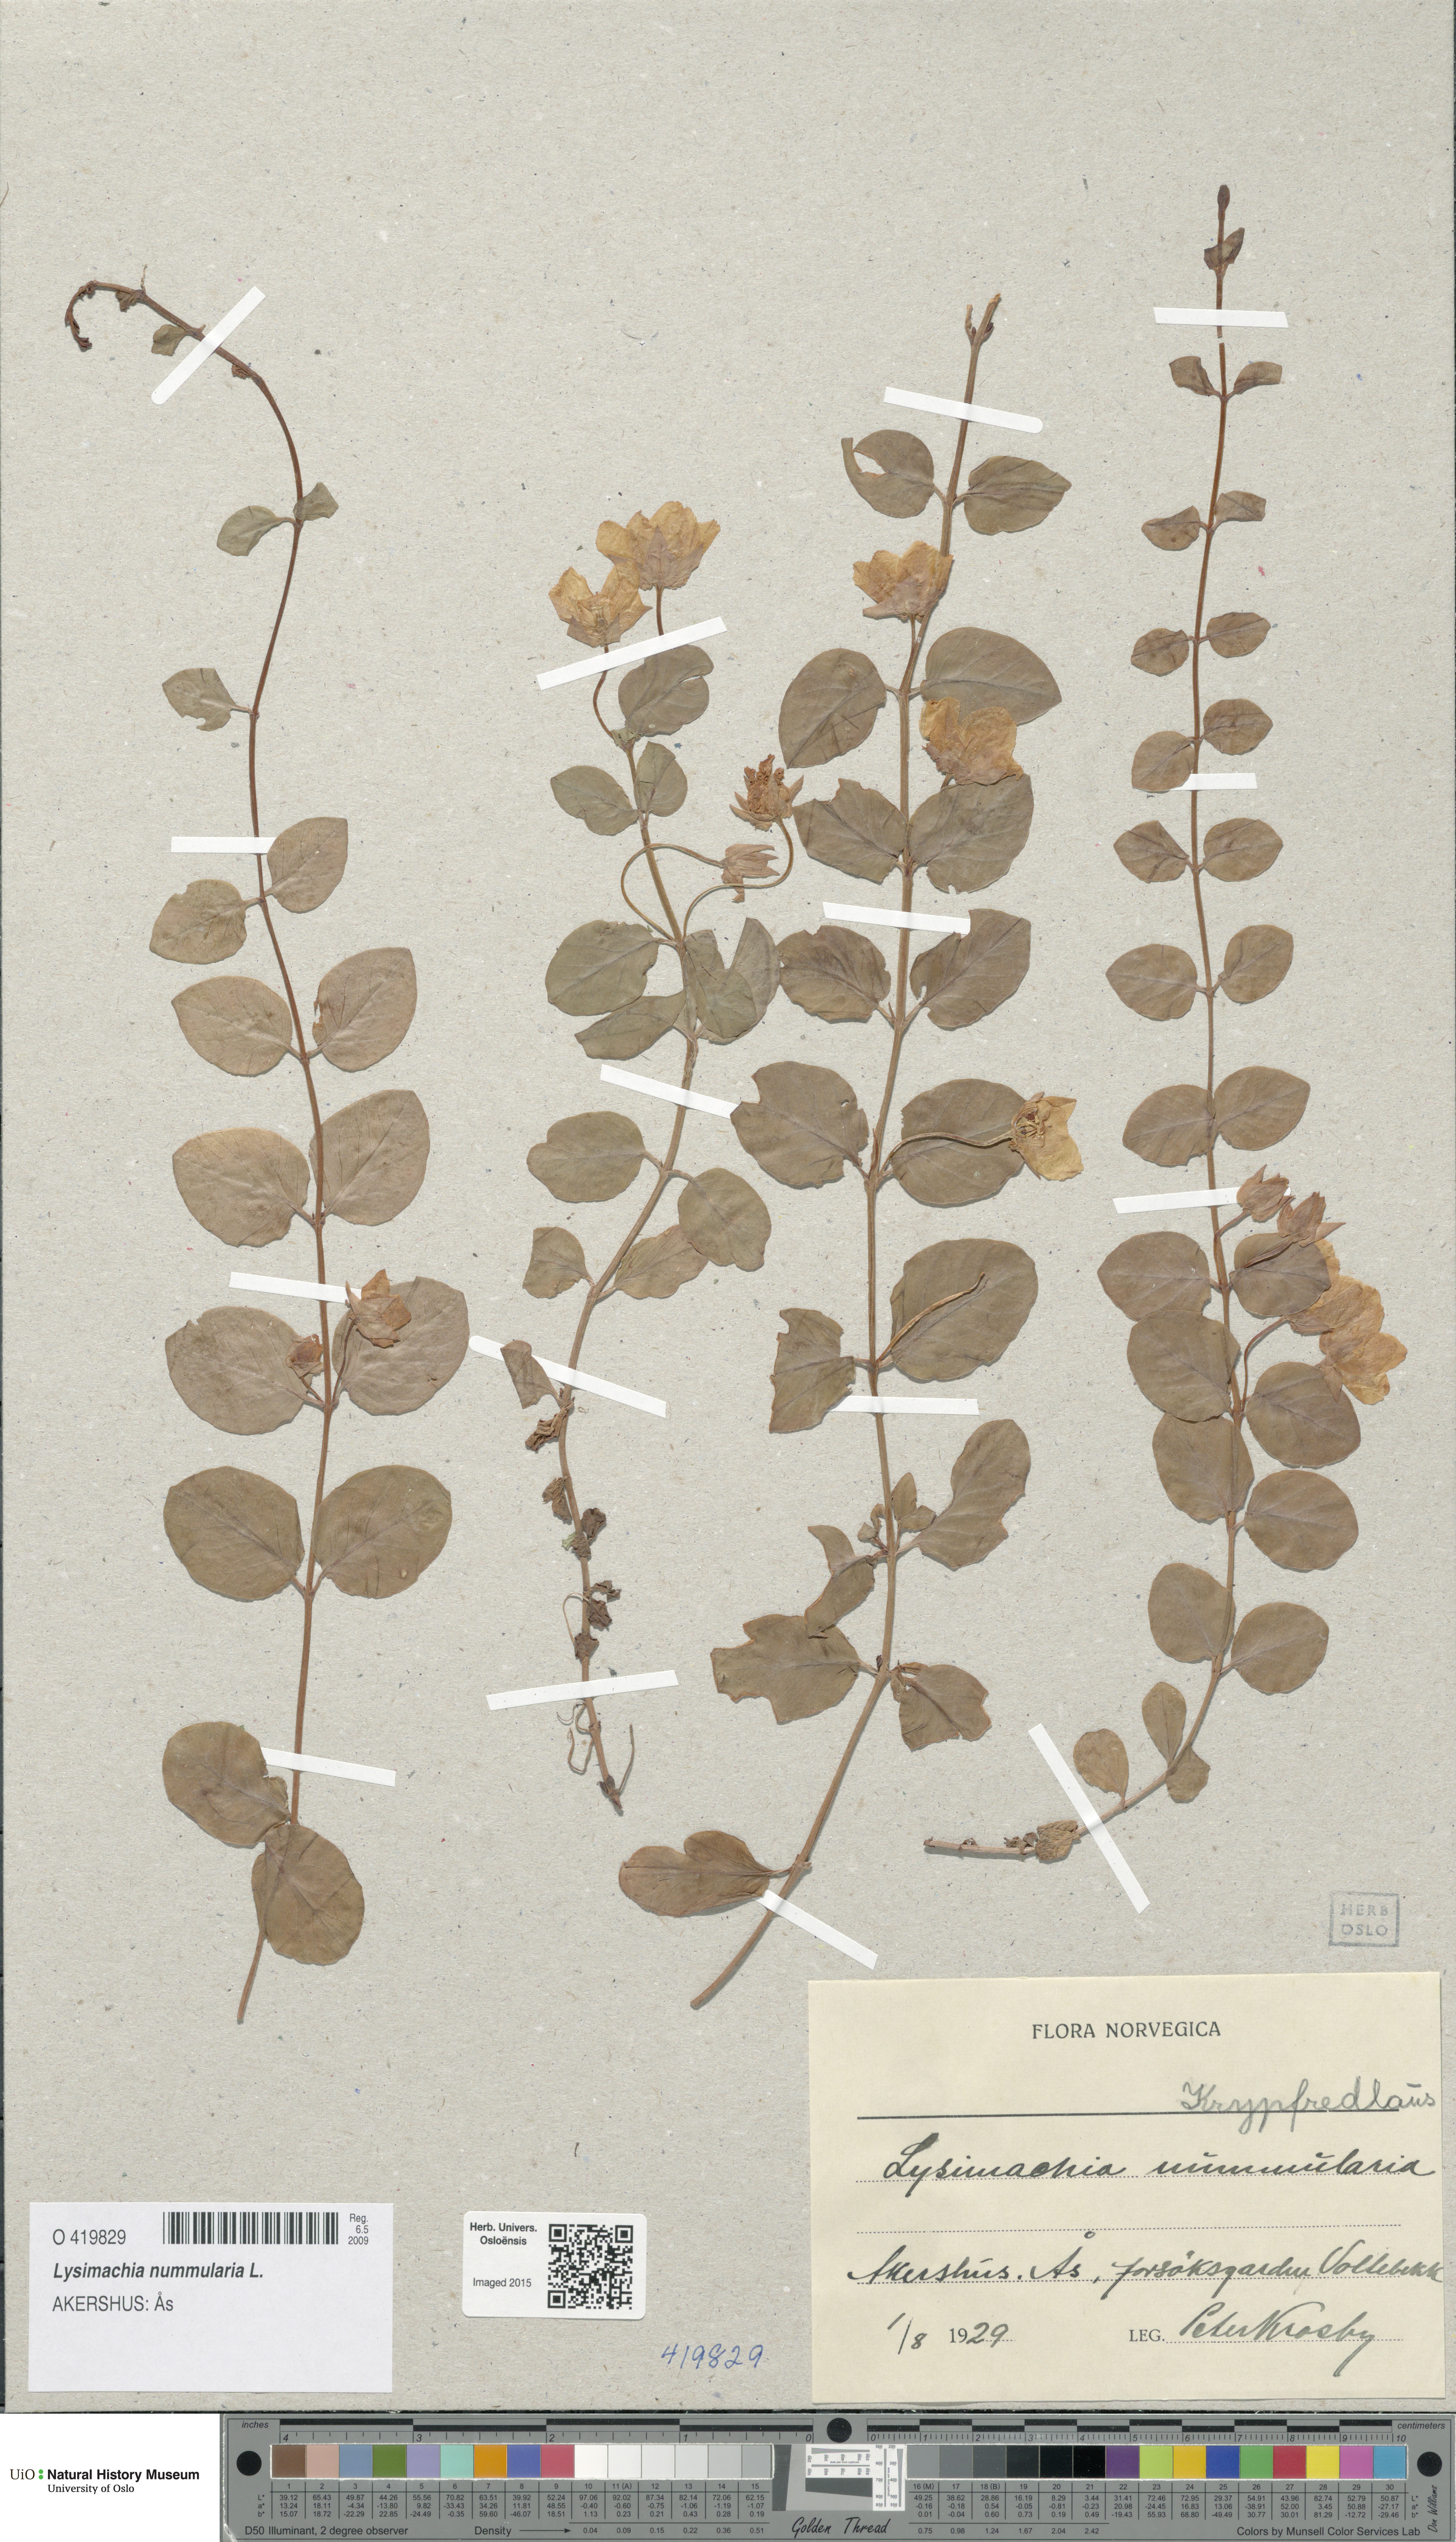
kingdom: Plantae
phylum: Tracheophyta
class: Magnoliopsida
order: Ericales
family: Primulaceae
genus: Lysimachia
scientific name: Lysimachia nummularia
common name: Moneywort
